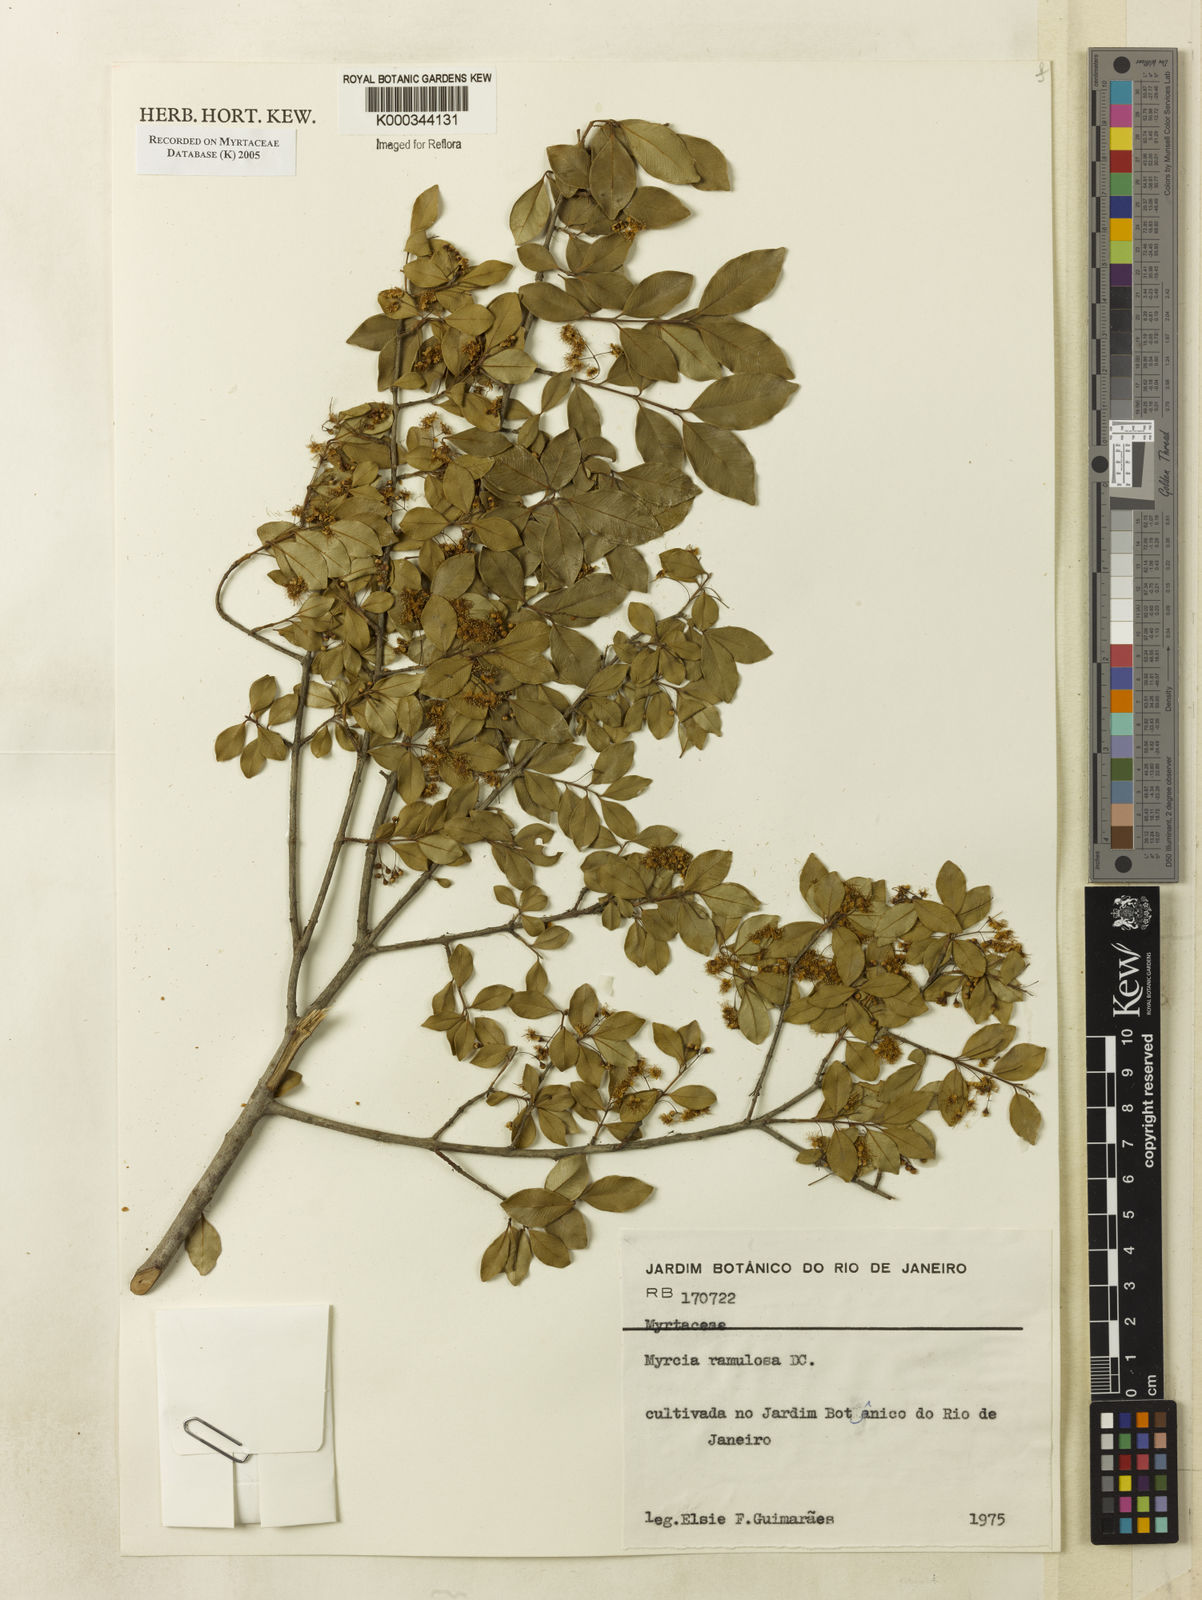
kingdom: Plantae
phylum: Tracheophyta
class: Magnoliopsida
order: Myrtales
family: Myrtaceae
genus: Myrcia
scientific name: Myrcia selloi
